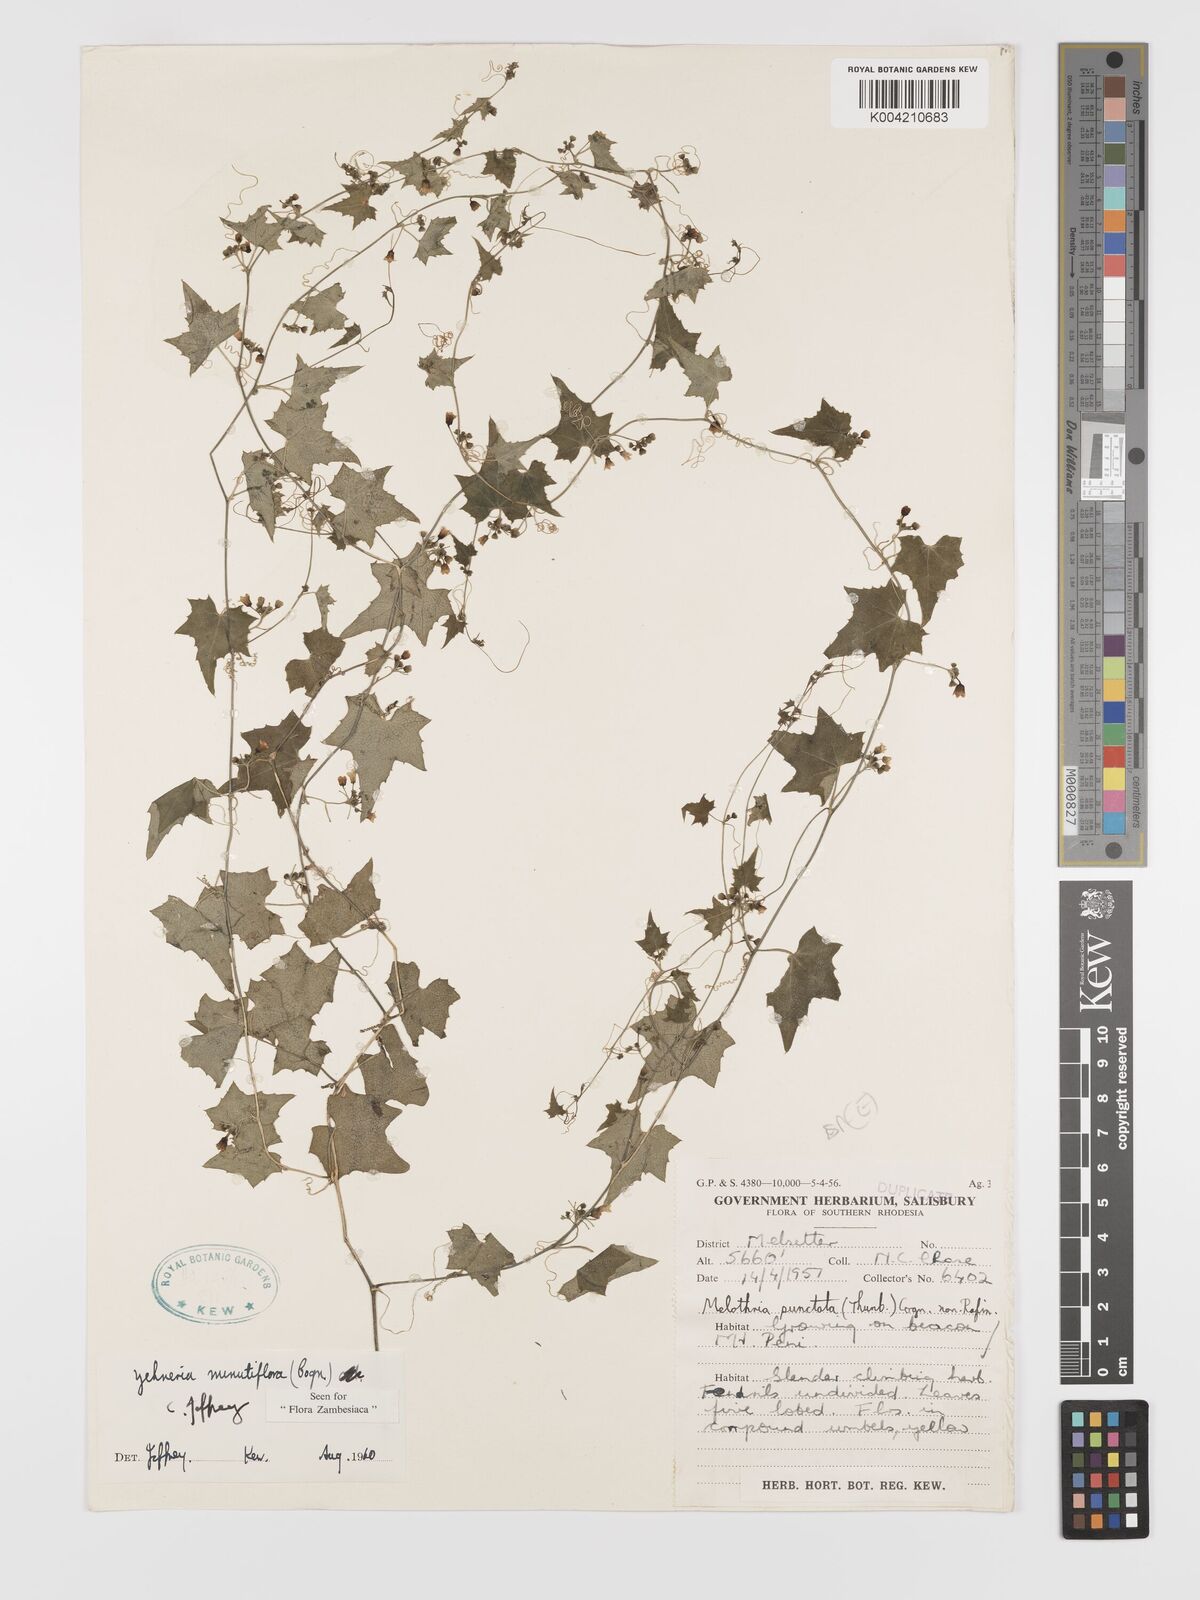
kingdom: Plantae
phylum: Tracheophyta
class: Magnoliopsida
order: Cucurbitales
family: Cucurbitaceae
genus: Zehneria
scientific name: Zehneria minutiflora
